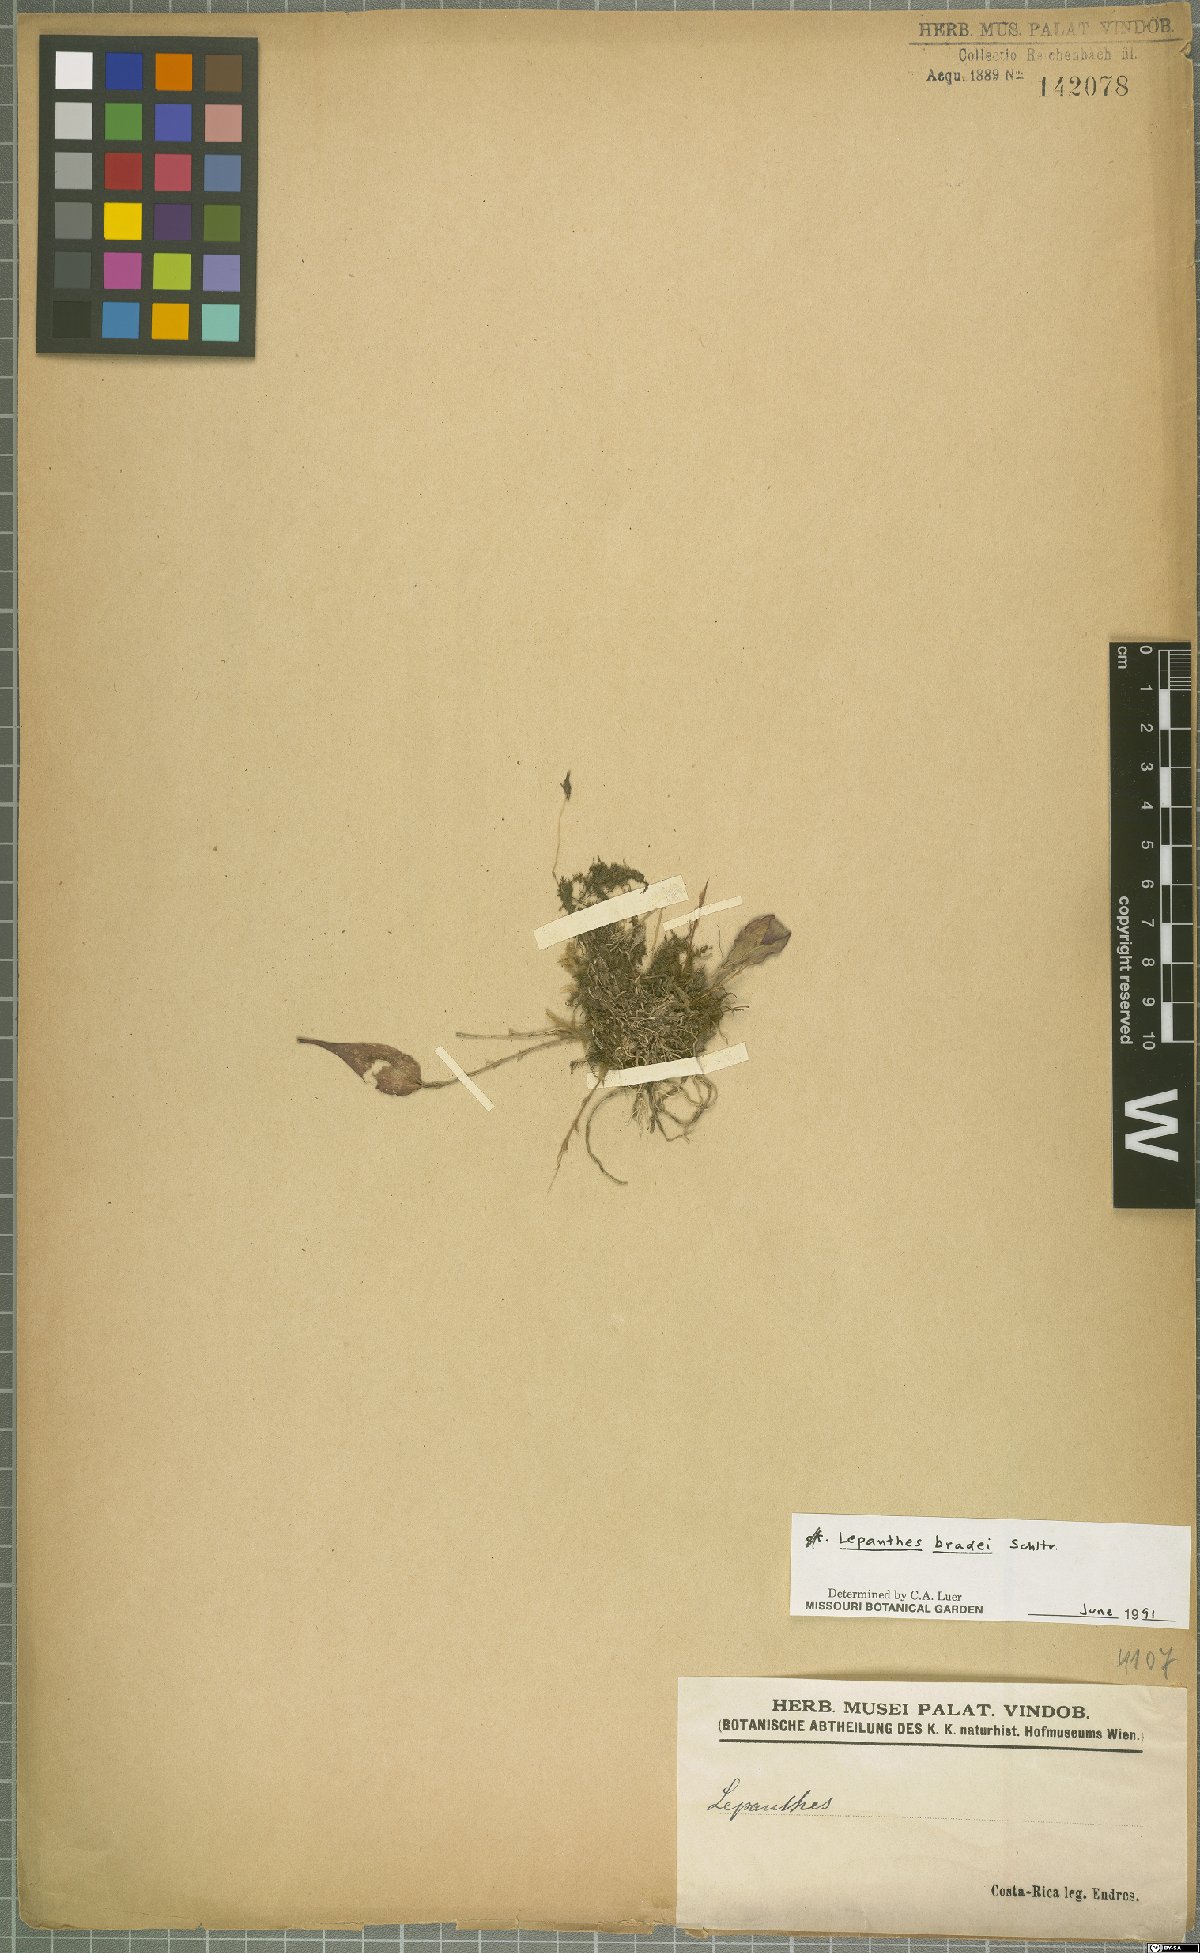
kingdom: Plantae
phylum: Tracheophyta
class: Liliopsida
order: Asparagales
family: Orchidaceae
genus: Lepanthes
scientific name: Lepanthes bradei
